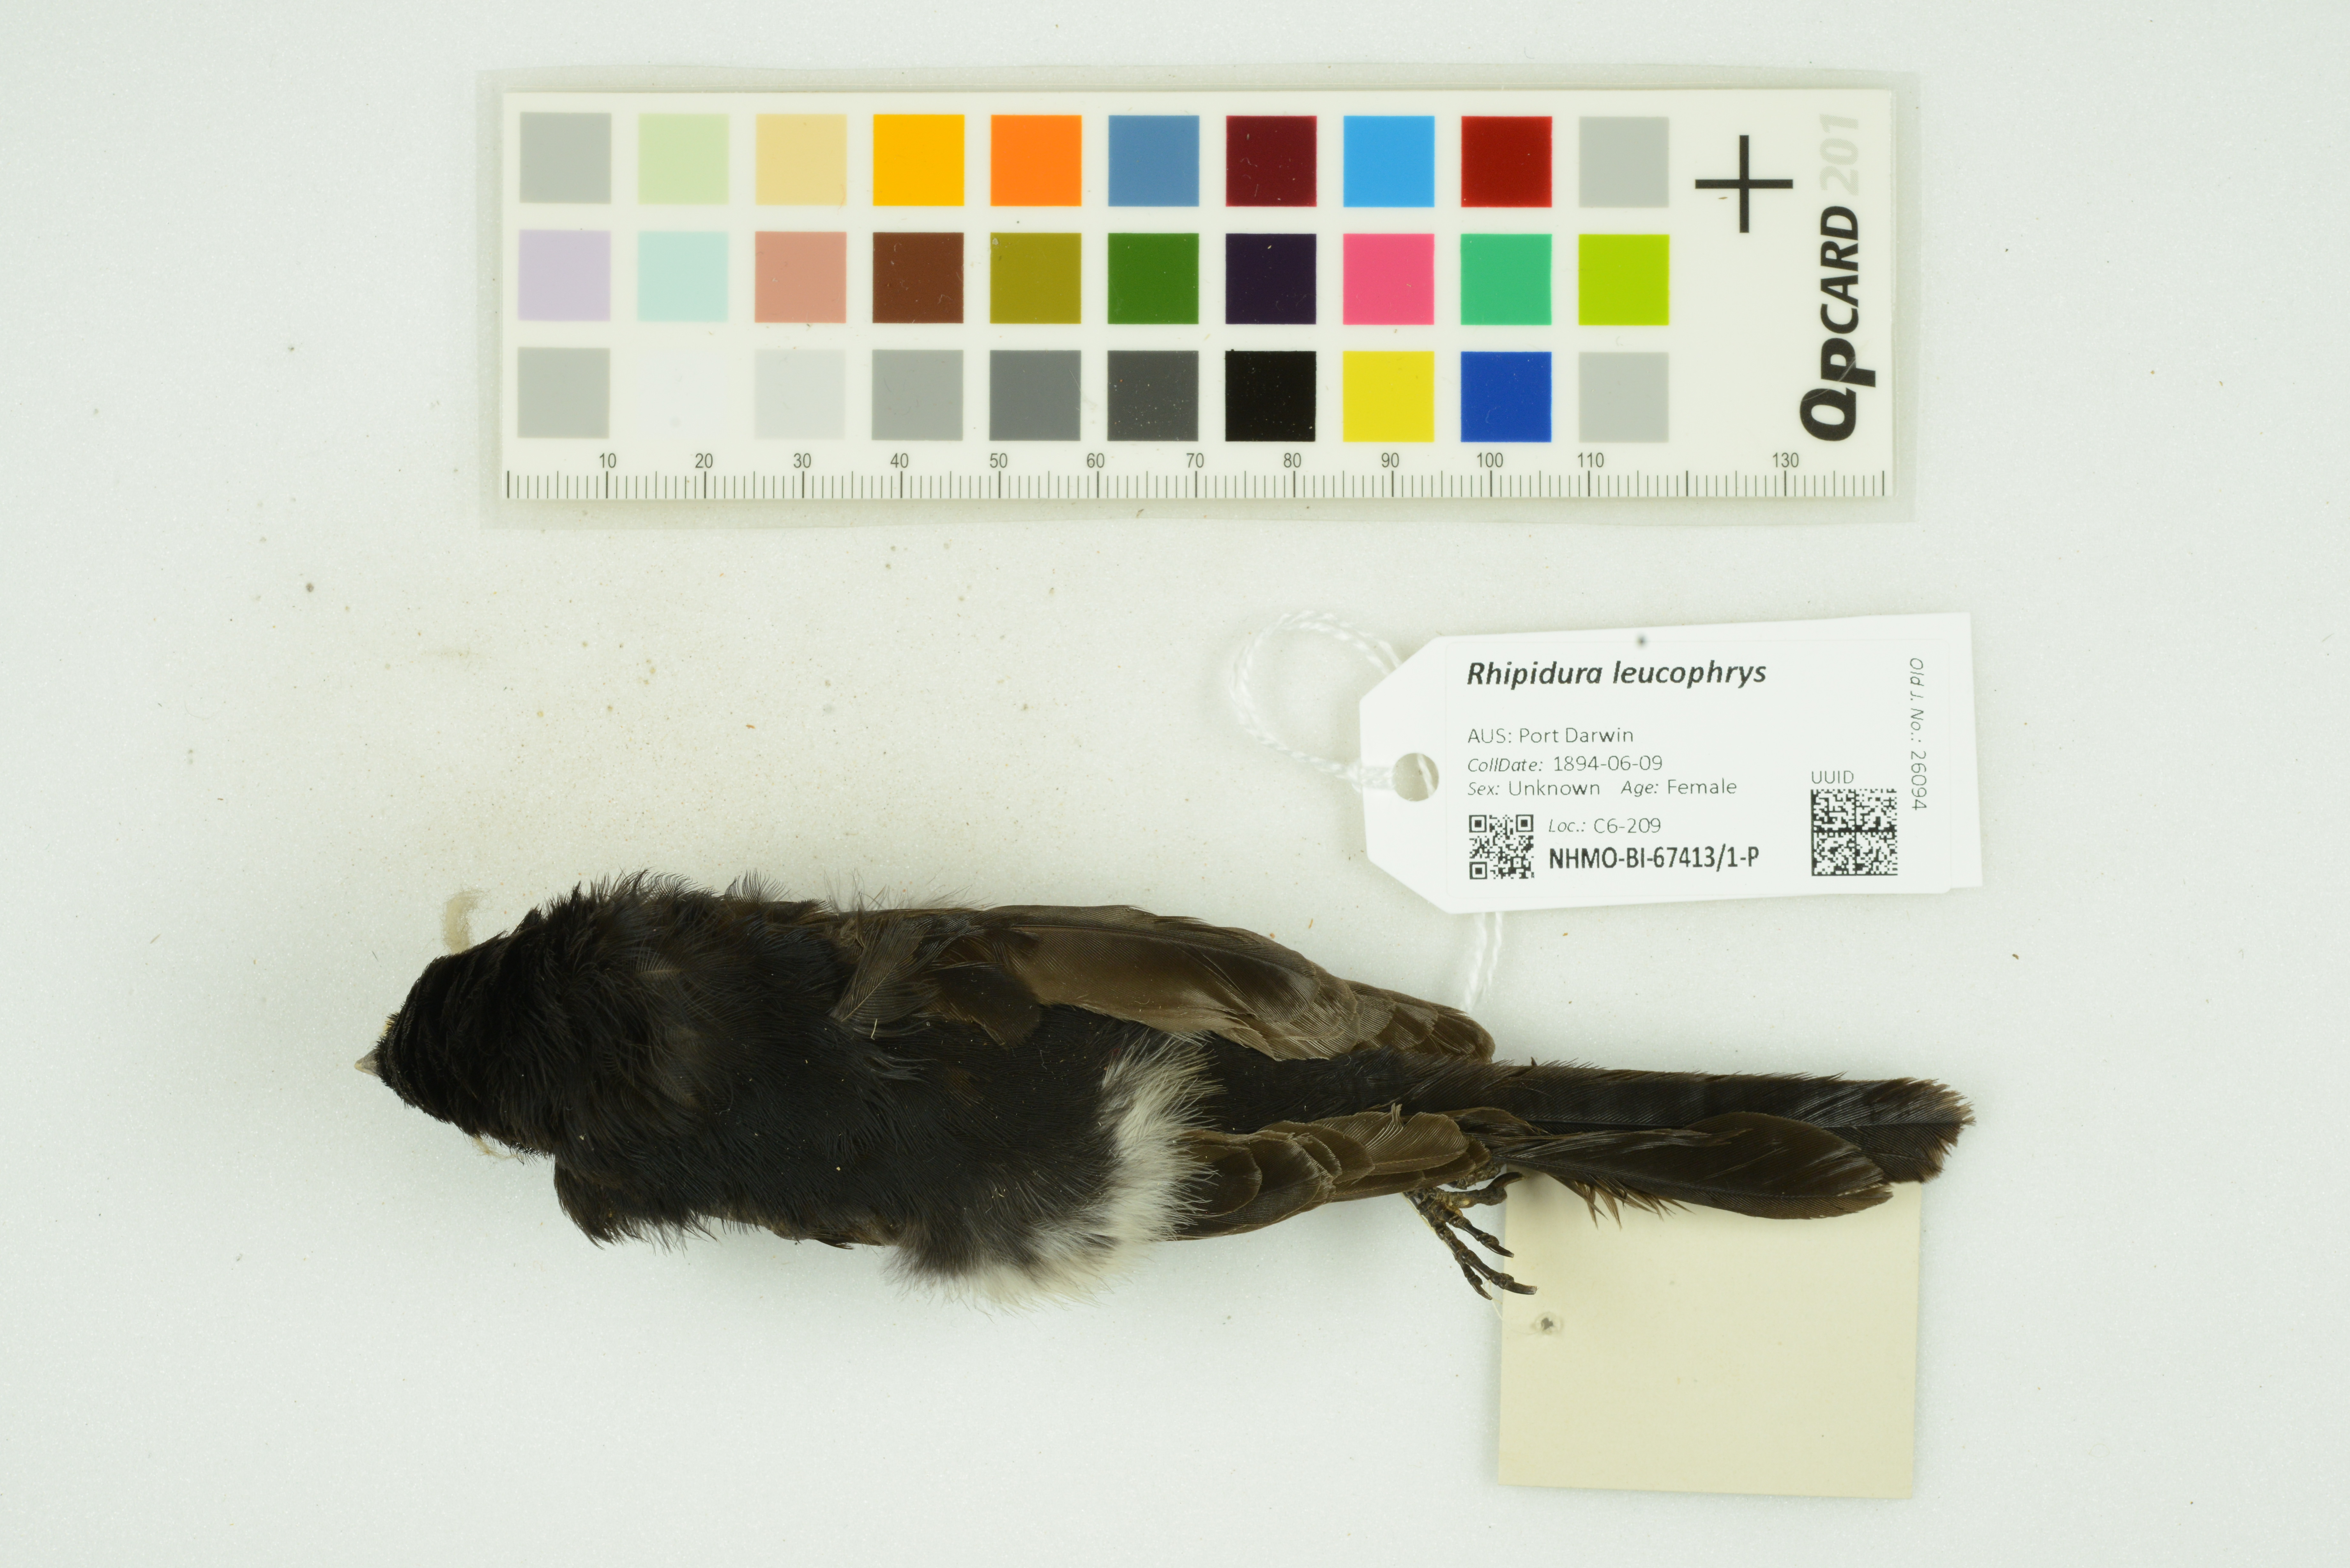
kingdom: Animalia
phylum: Chordata
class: Aves
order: Passeriformes
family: Rhipiduridae
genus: Rhipidura
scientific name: Rhipidura leucophrys
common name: Willie wagtail
